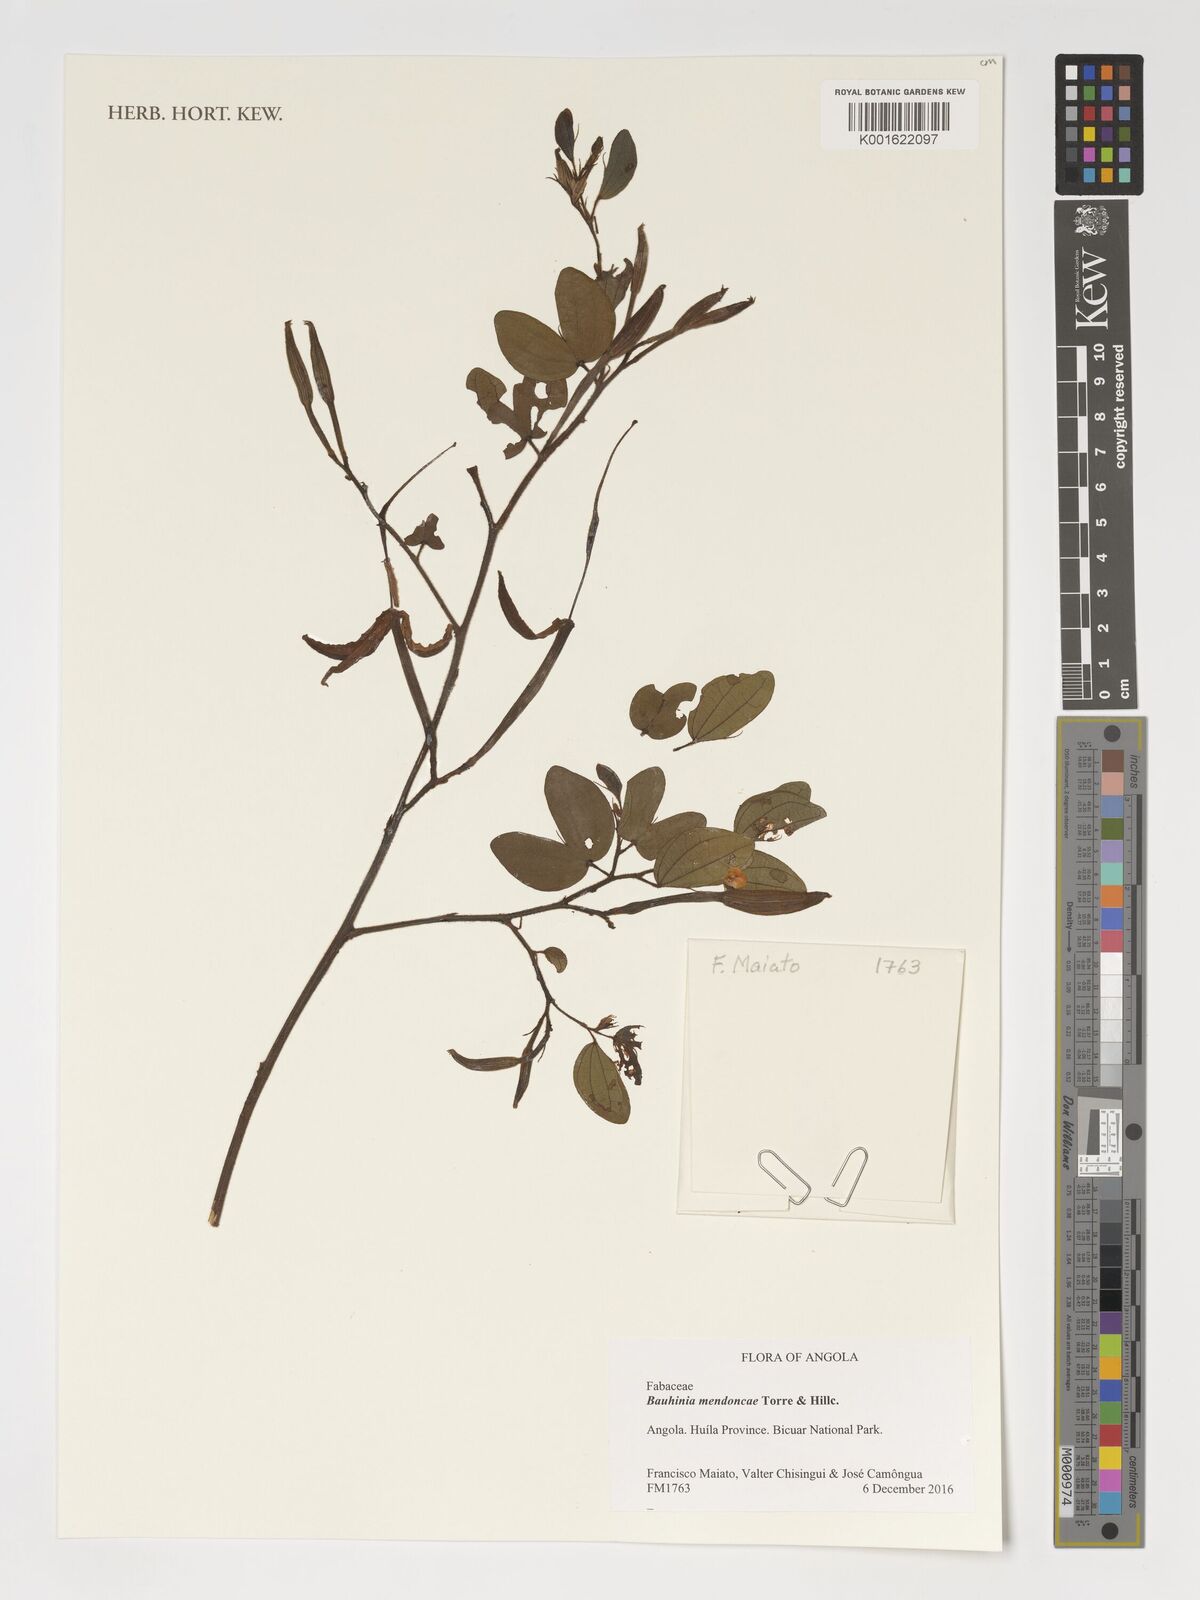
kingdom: Plantae
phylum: Tracheophyta
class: Magnoliopsida
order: Fabales
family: Fabaceae
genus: Bauhinia
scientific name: Bauhinia mendoncae
